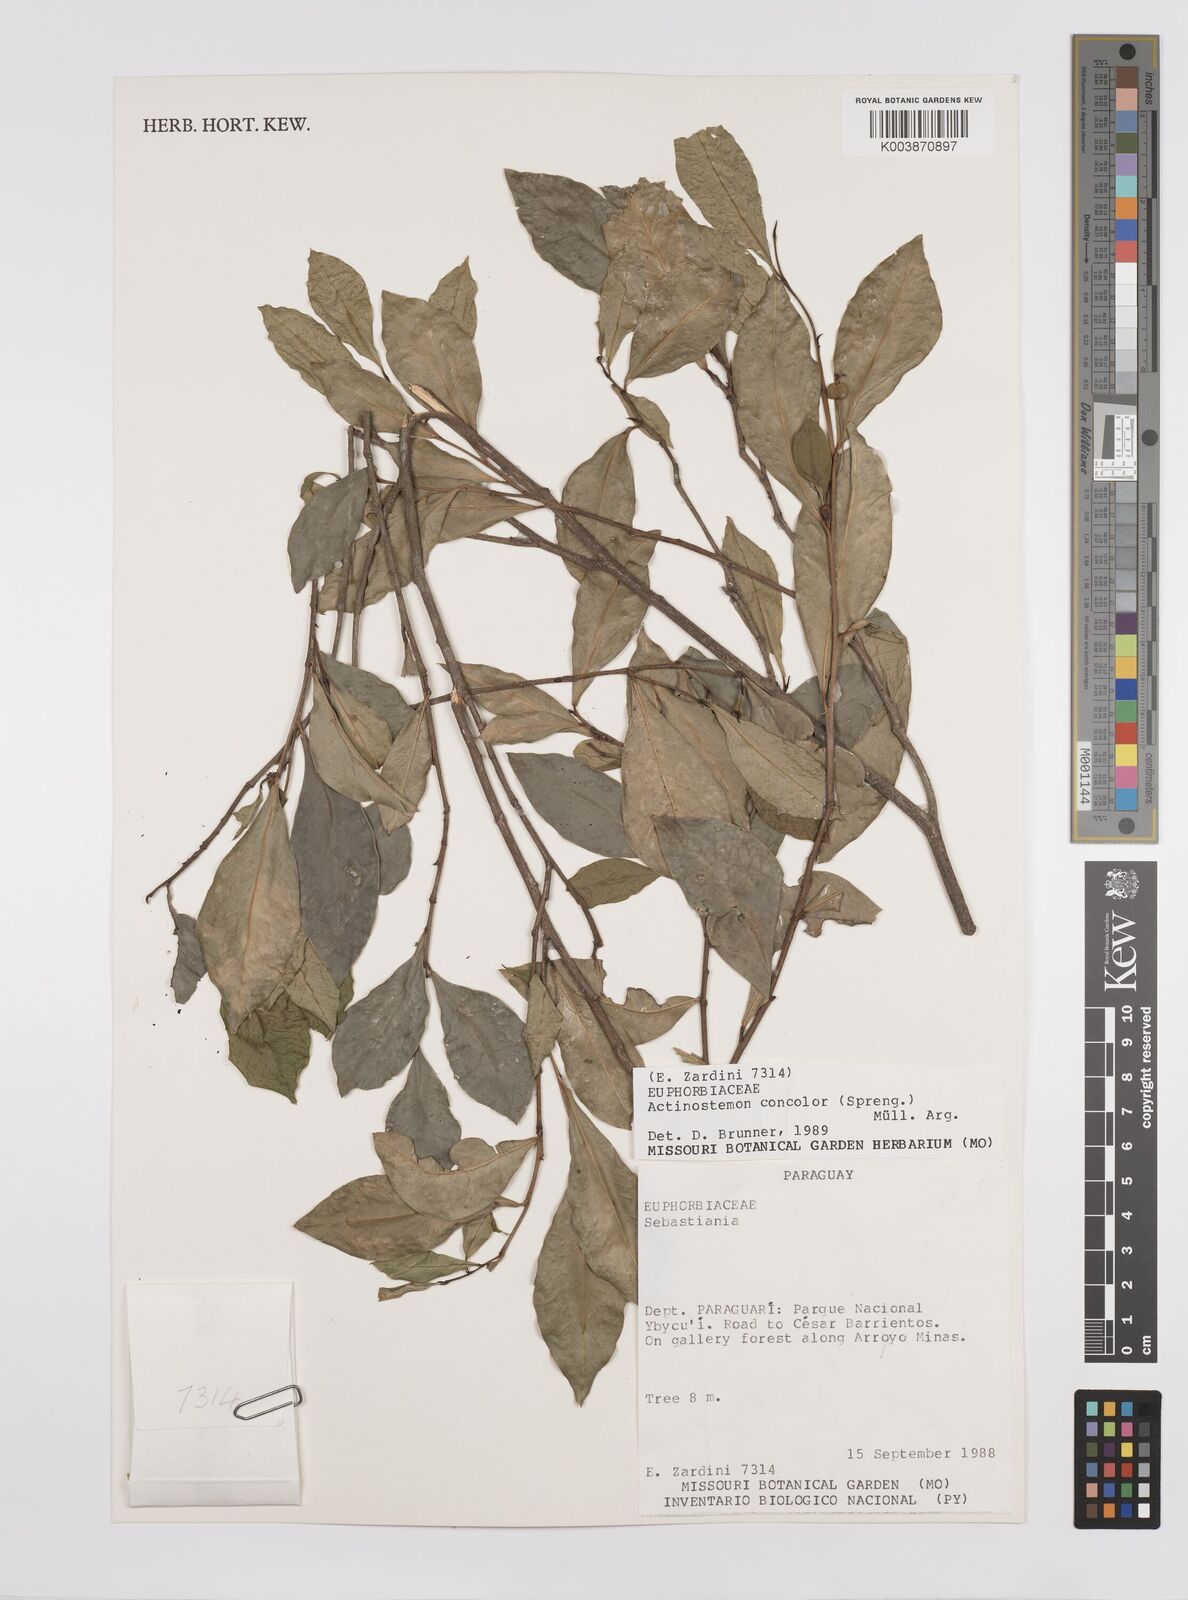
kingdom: Plantae
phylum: Tracheophyta
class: Magnoliopsida
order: Malpighiales
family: Euphorbiaceae
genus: Actinostemon
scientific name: Actinostemon concolor
